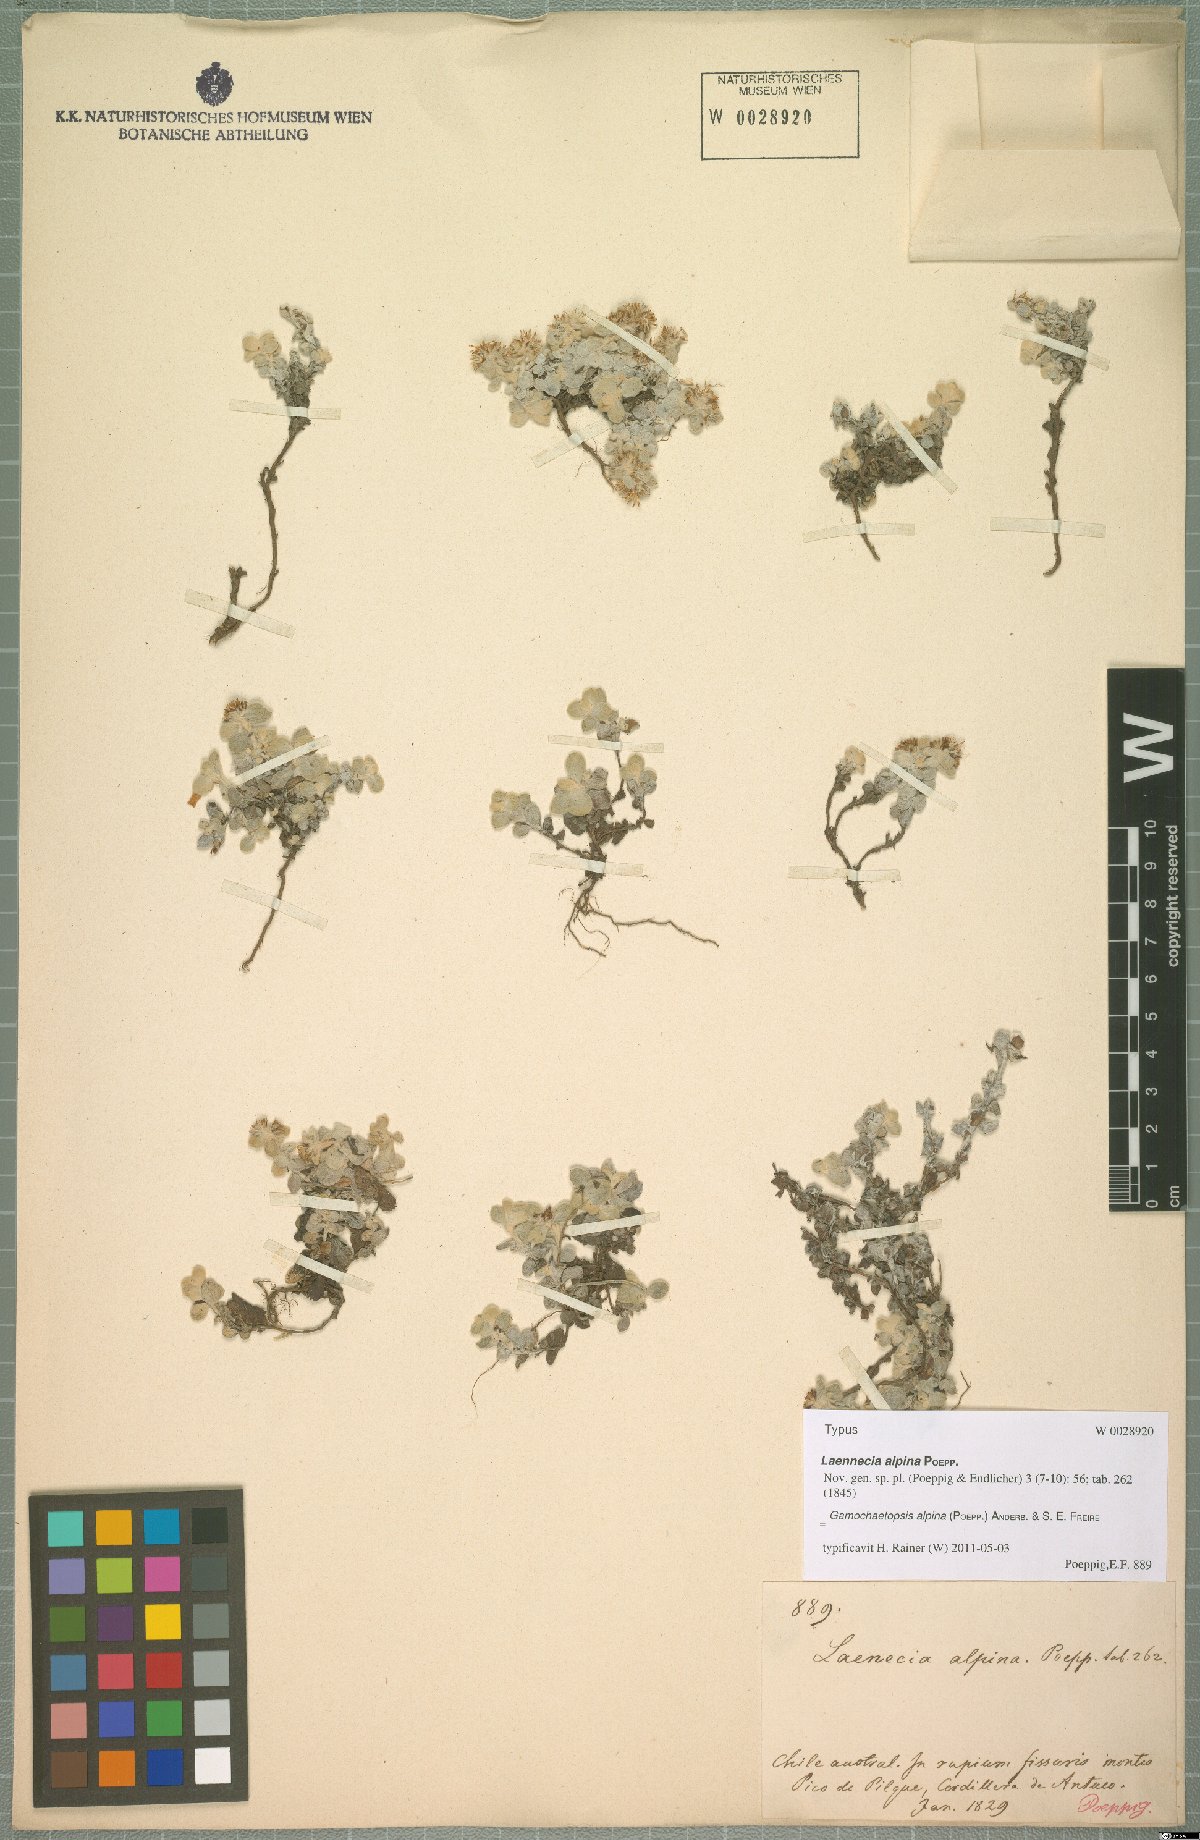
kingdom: Plantae
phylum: Tracheophyta
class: Magnoliopsida
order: Asterales
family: Asteraceae
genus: Gamochaeta
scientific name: Gamochaeta alpina
